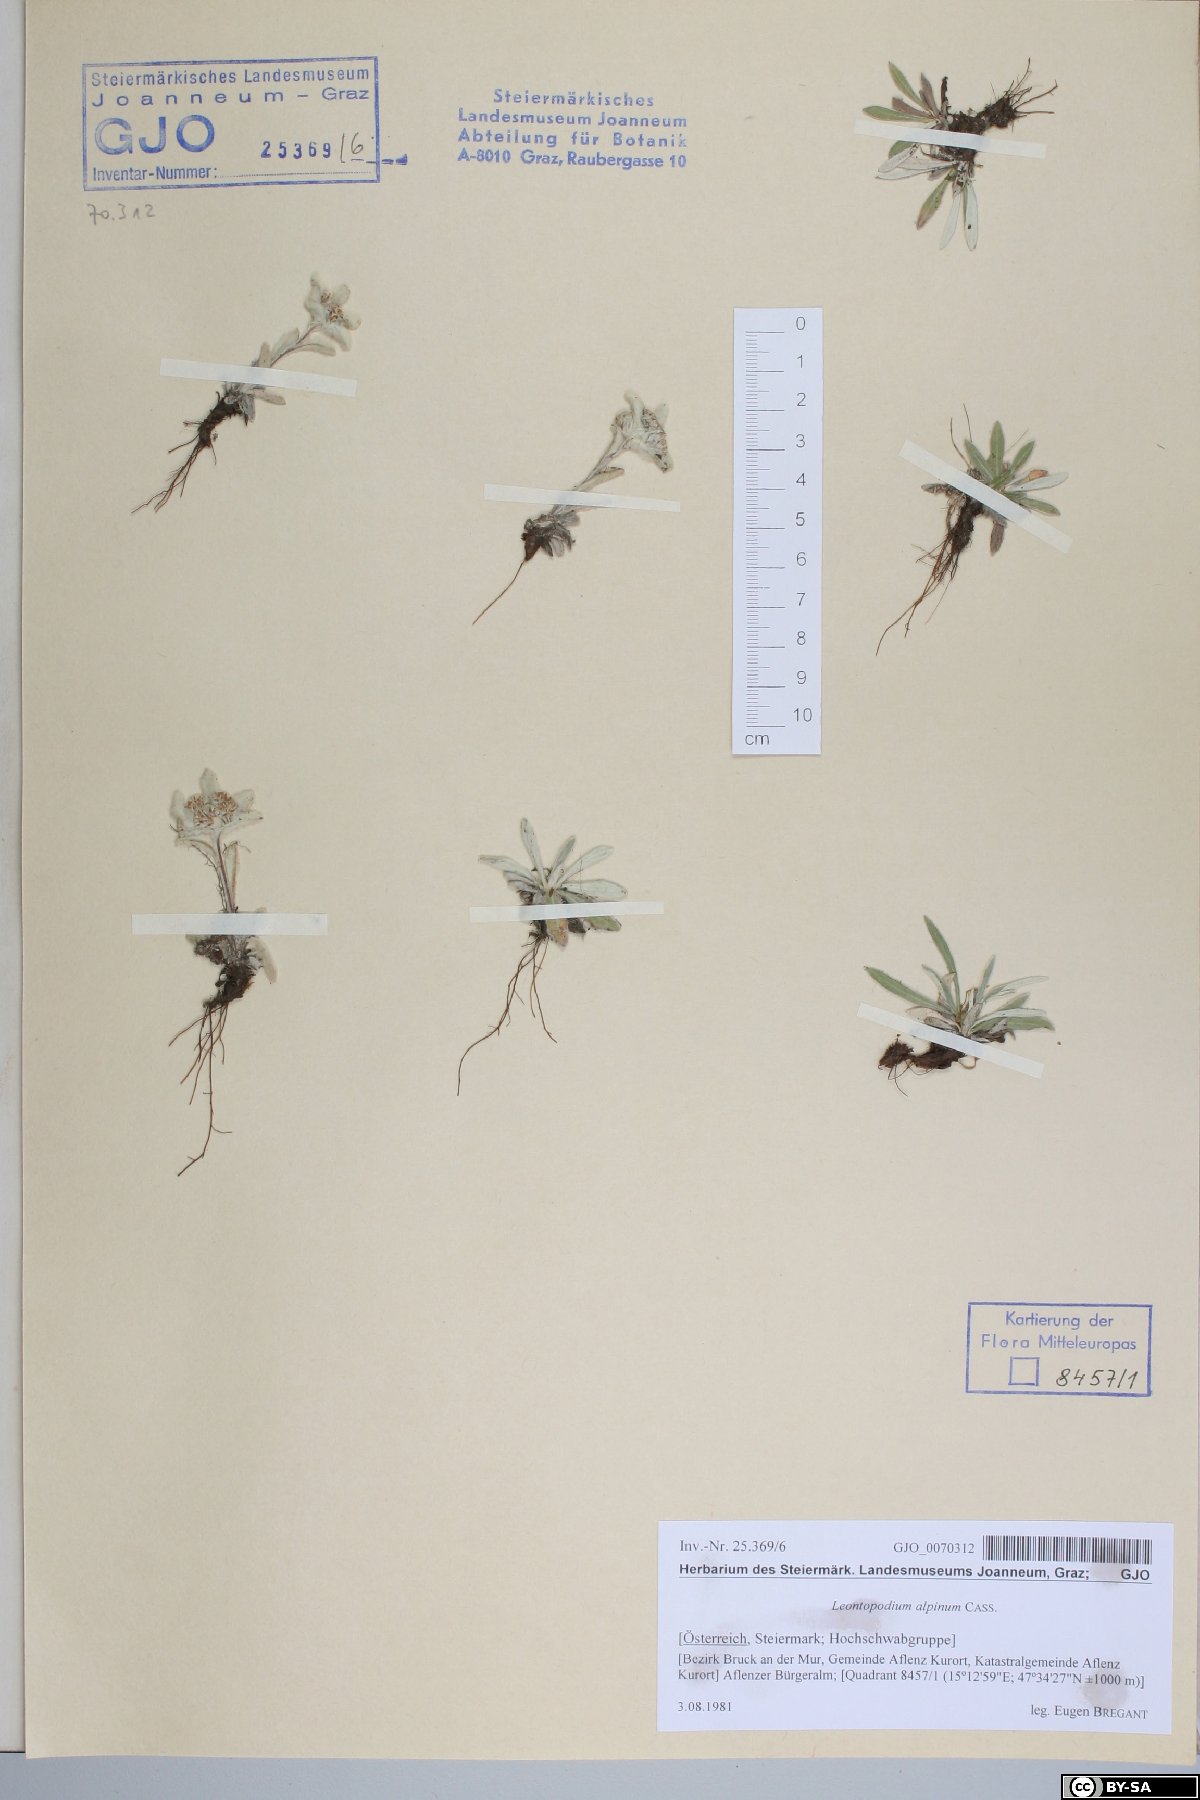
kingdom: Plantae
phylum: Tracheophyta
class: Magnoliopsida
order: Asterales
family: Asteraceae
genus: Leontopodium
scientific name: Leontopodium nivale
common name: Edelweiss
